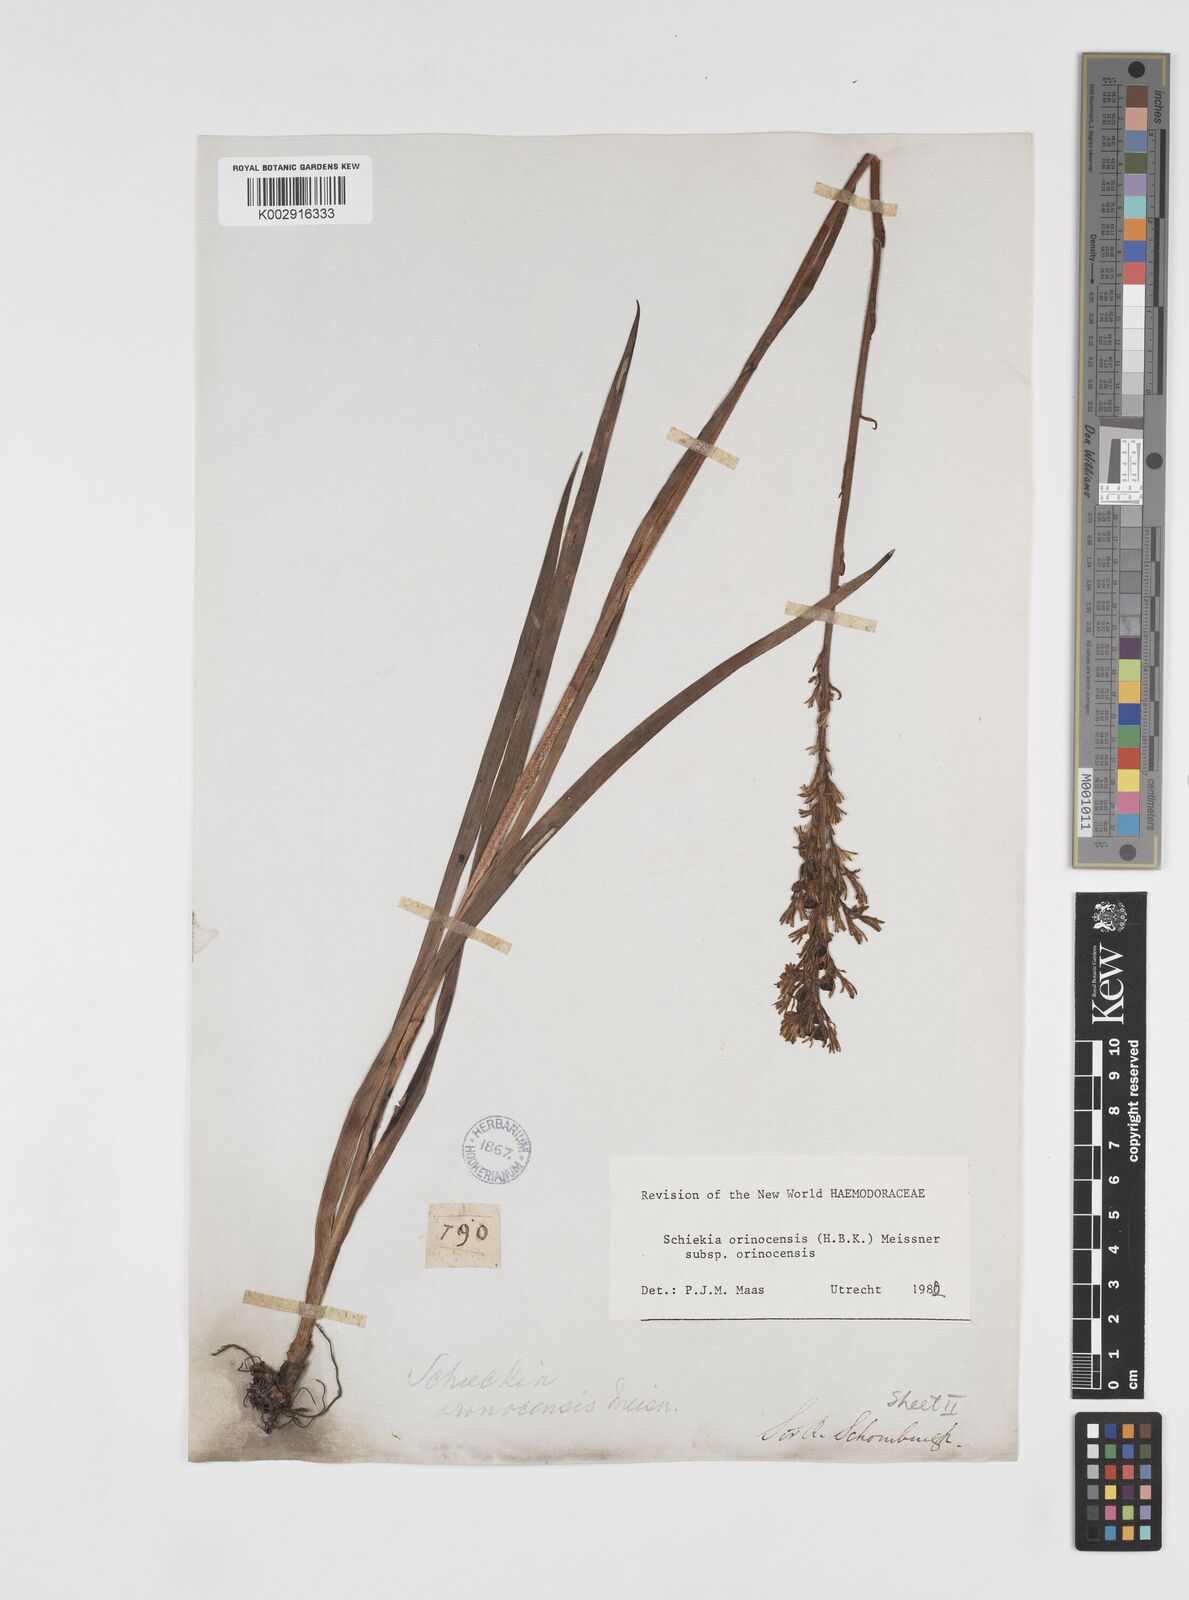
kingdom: Plantae
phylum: Tracheophyta
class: Liliopsida
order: Commelinales
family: Haemodoraceae
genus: Schiekia
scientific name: Schiekia orinocensis
